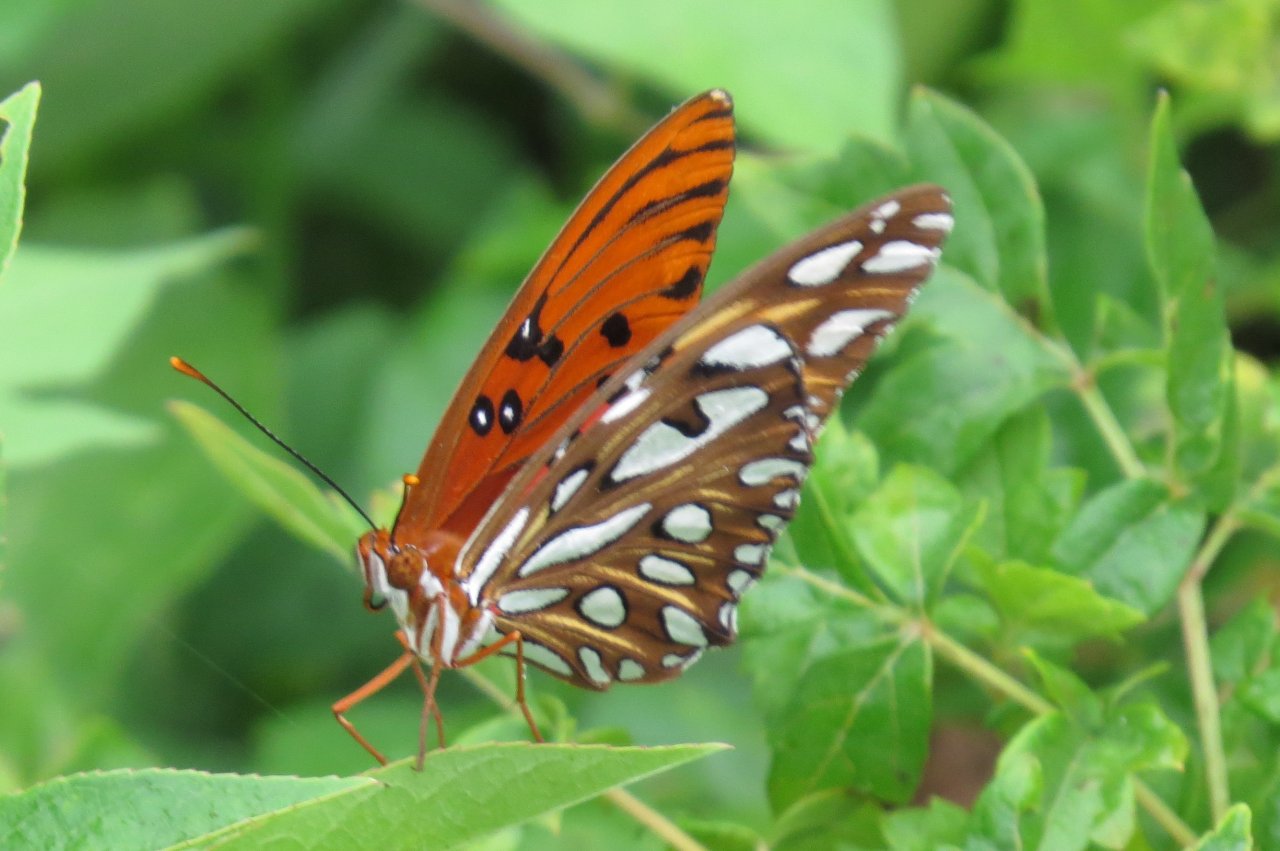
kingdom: Animalia
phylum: Arthropoda
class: Insecta
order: Lepidoptera
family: Nymphalidae
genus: Dione
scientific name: Dione vanillae
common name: Gulf Fritillary
